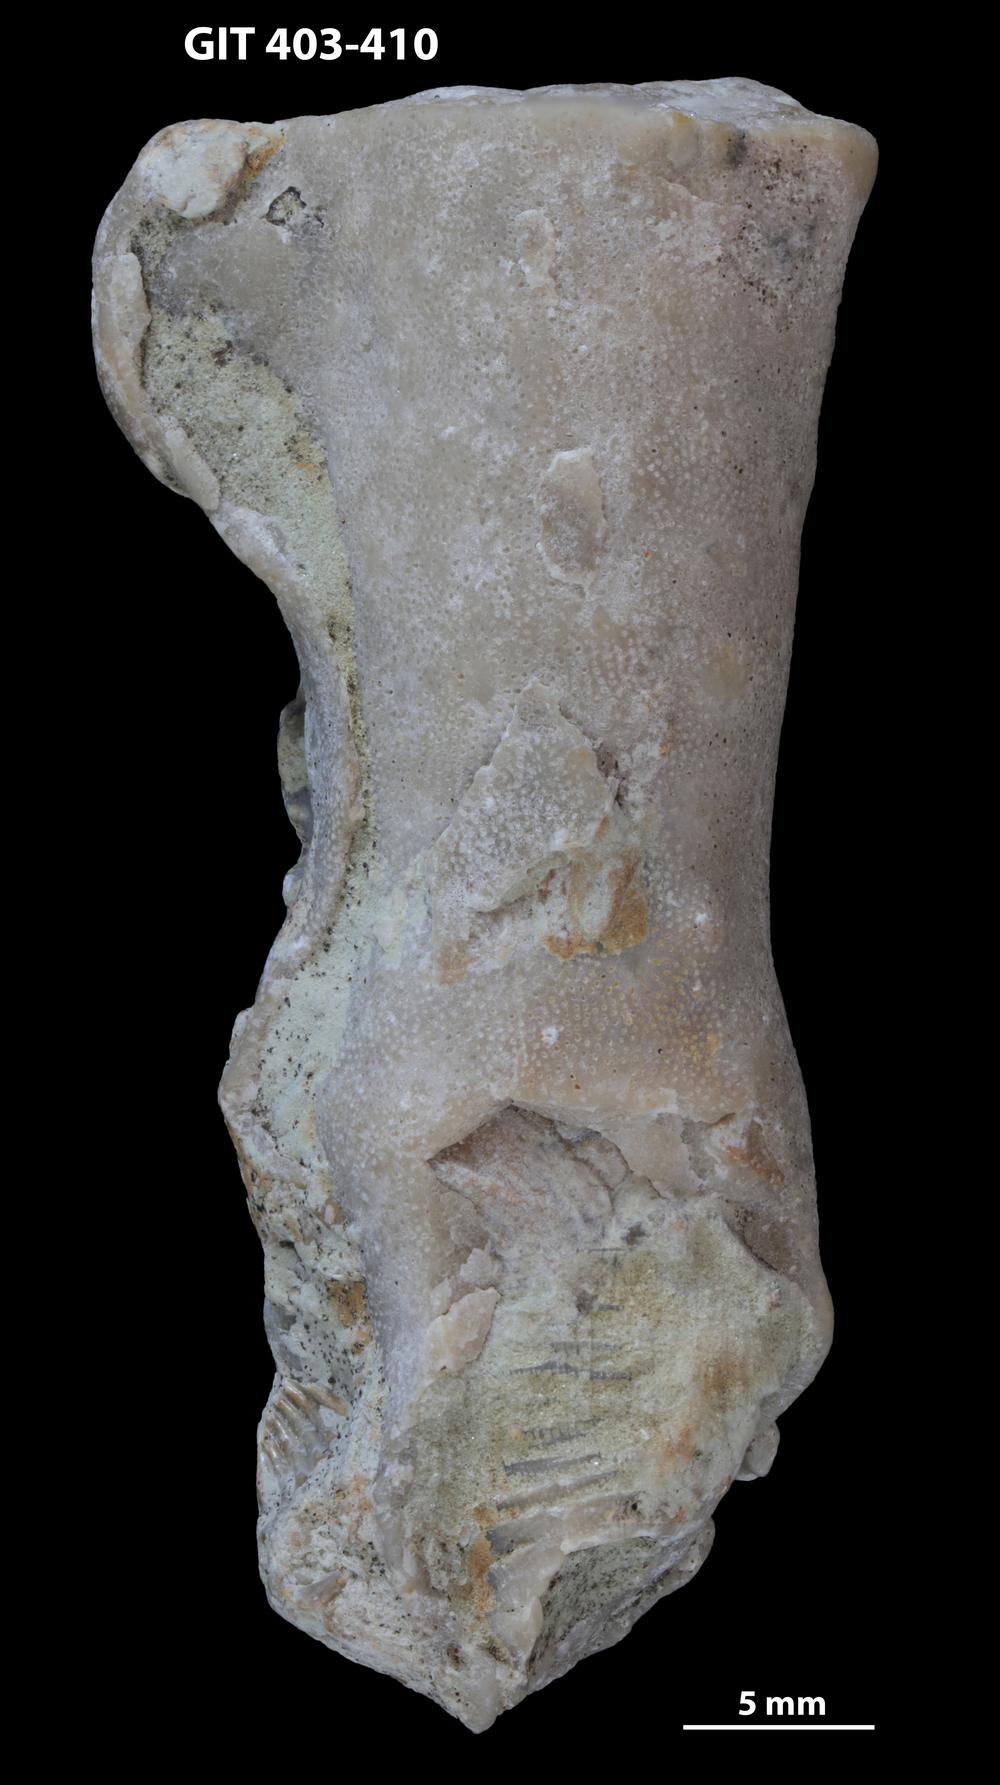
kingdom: Animalia
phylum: Bryozoa
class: Stenolaemata
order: Cystoporida
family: Fistuliporidae
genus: Fistulipora
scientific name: Fistulipora przhidolensis
